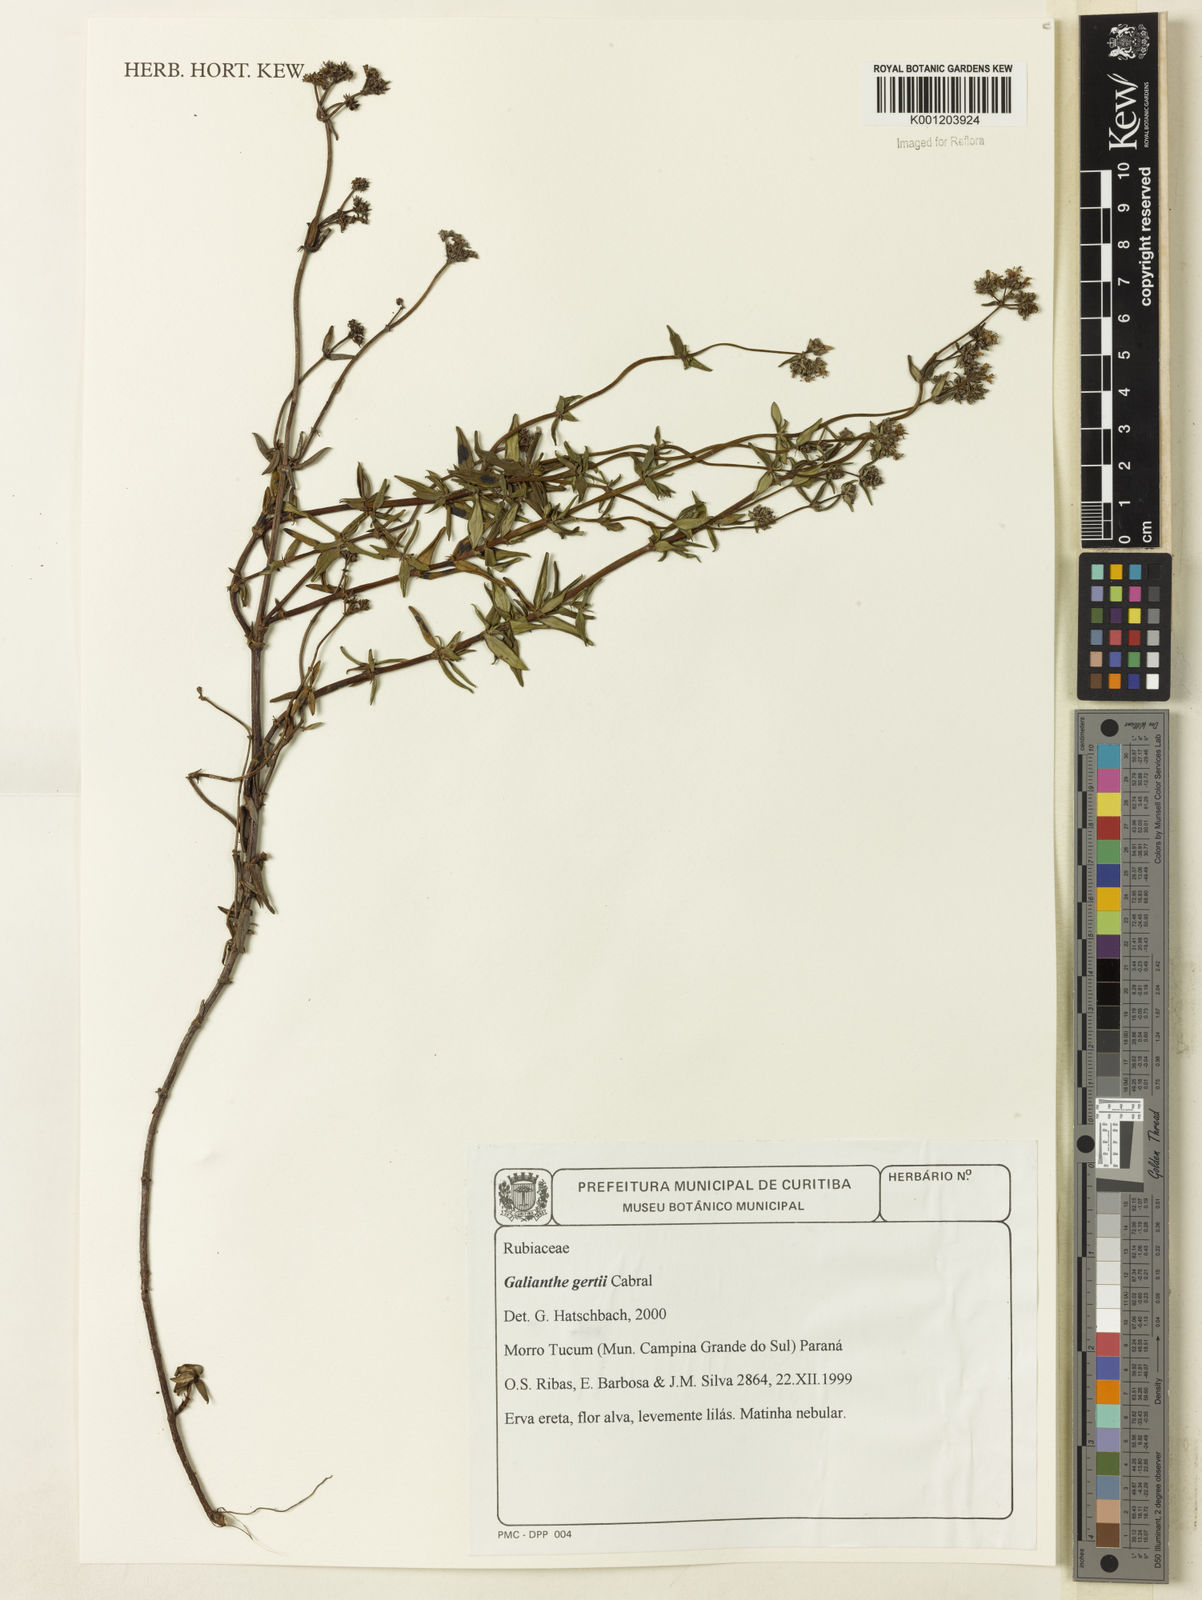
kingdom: Plantae
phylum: Tracheophyta
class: Magnoliopsida
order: Gentianales
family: Rubiaceae
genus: Galianthe
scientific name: Galianthe gertii
